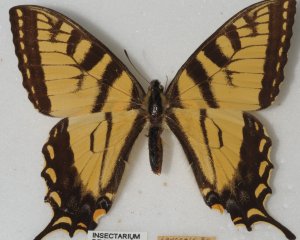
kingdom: Animalia
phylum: Arthropoda
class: Insecta
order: Lepidoptera
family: Papilionidae
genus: Pterourus
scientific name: Pterourus canadensis
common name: Canadian Tiger Swallowtail
